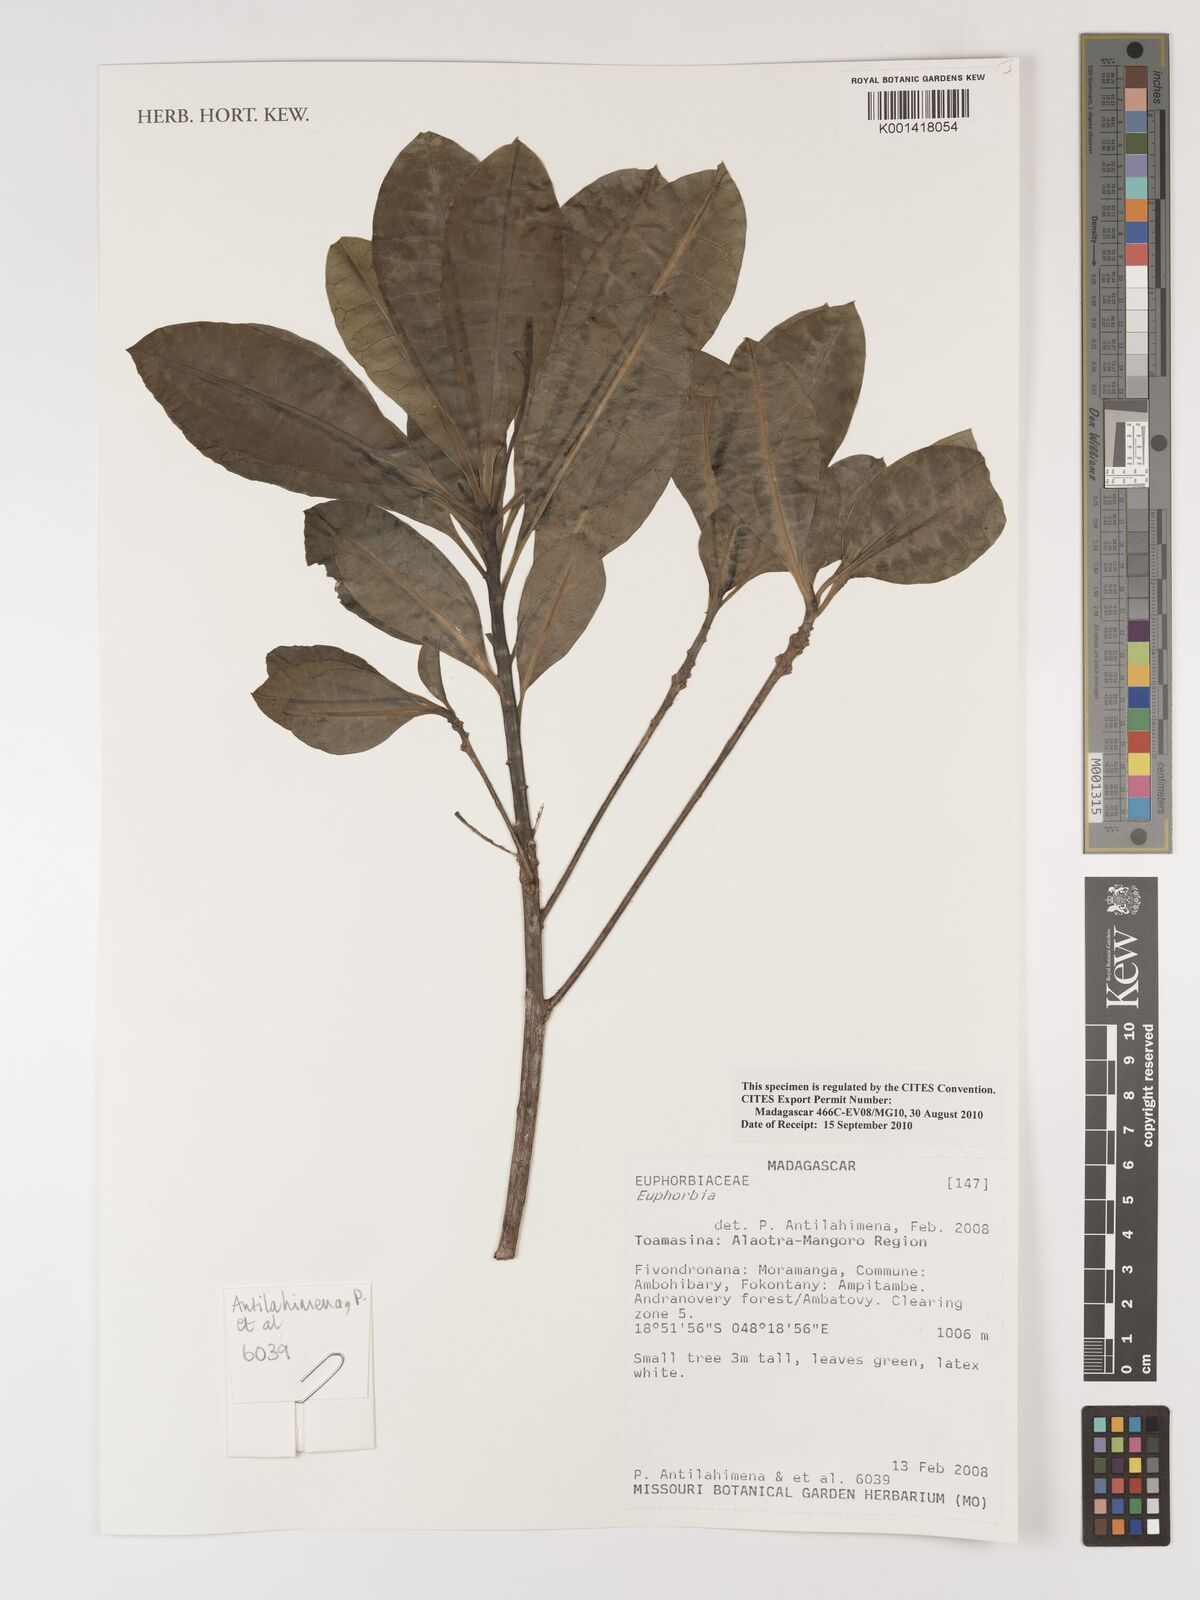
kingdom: Plantae
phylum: Tracheophyta
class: Magnoliopsida
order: Malpighiales
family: Euphorbiaceae
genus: Euphorbia
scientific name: Euphorbia
